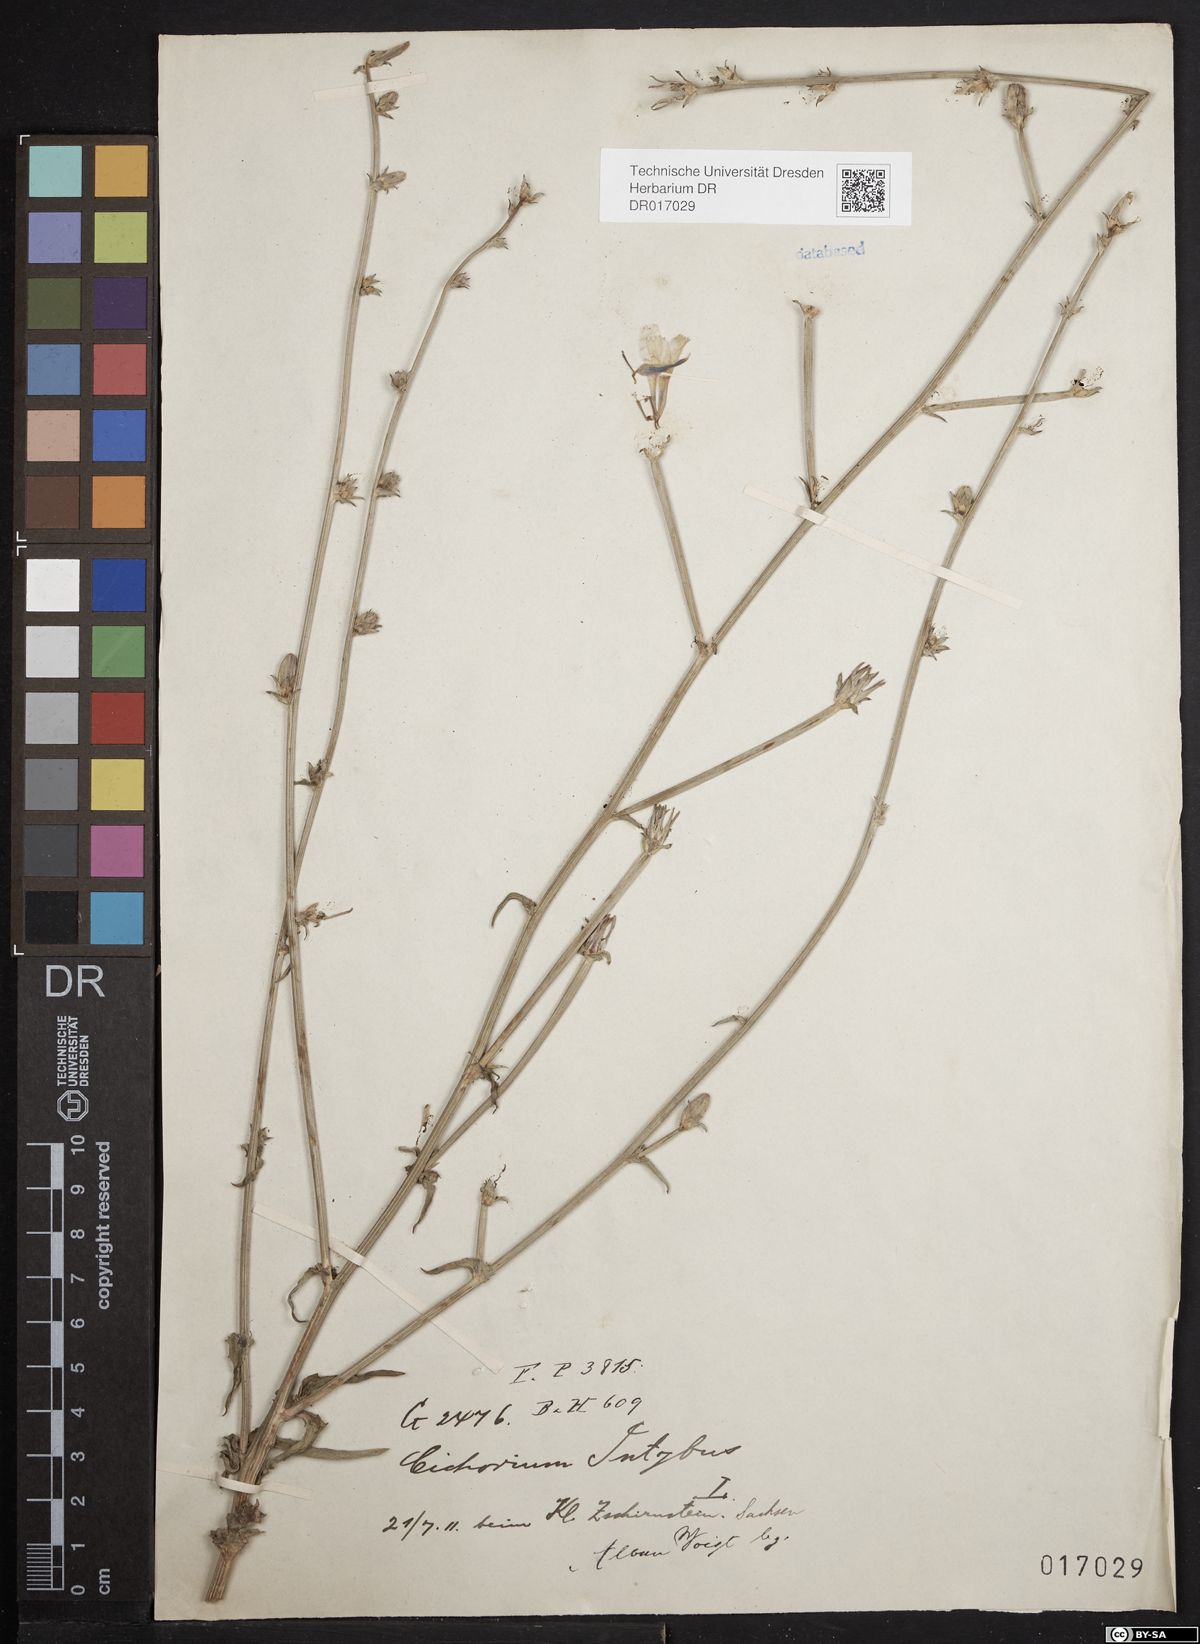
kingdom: Plantae
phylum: Tracheophyta
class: Magnoliopsida
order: Asterales
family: Asteraceae
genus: Cichorium
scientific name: Cichorium intybus
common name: Chicory
